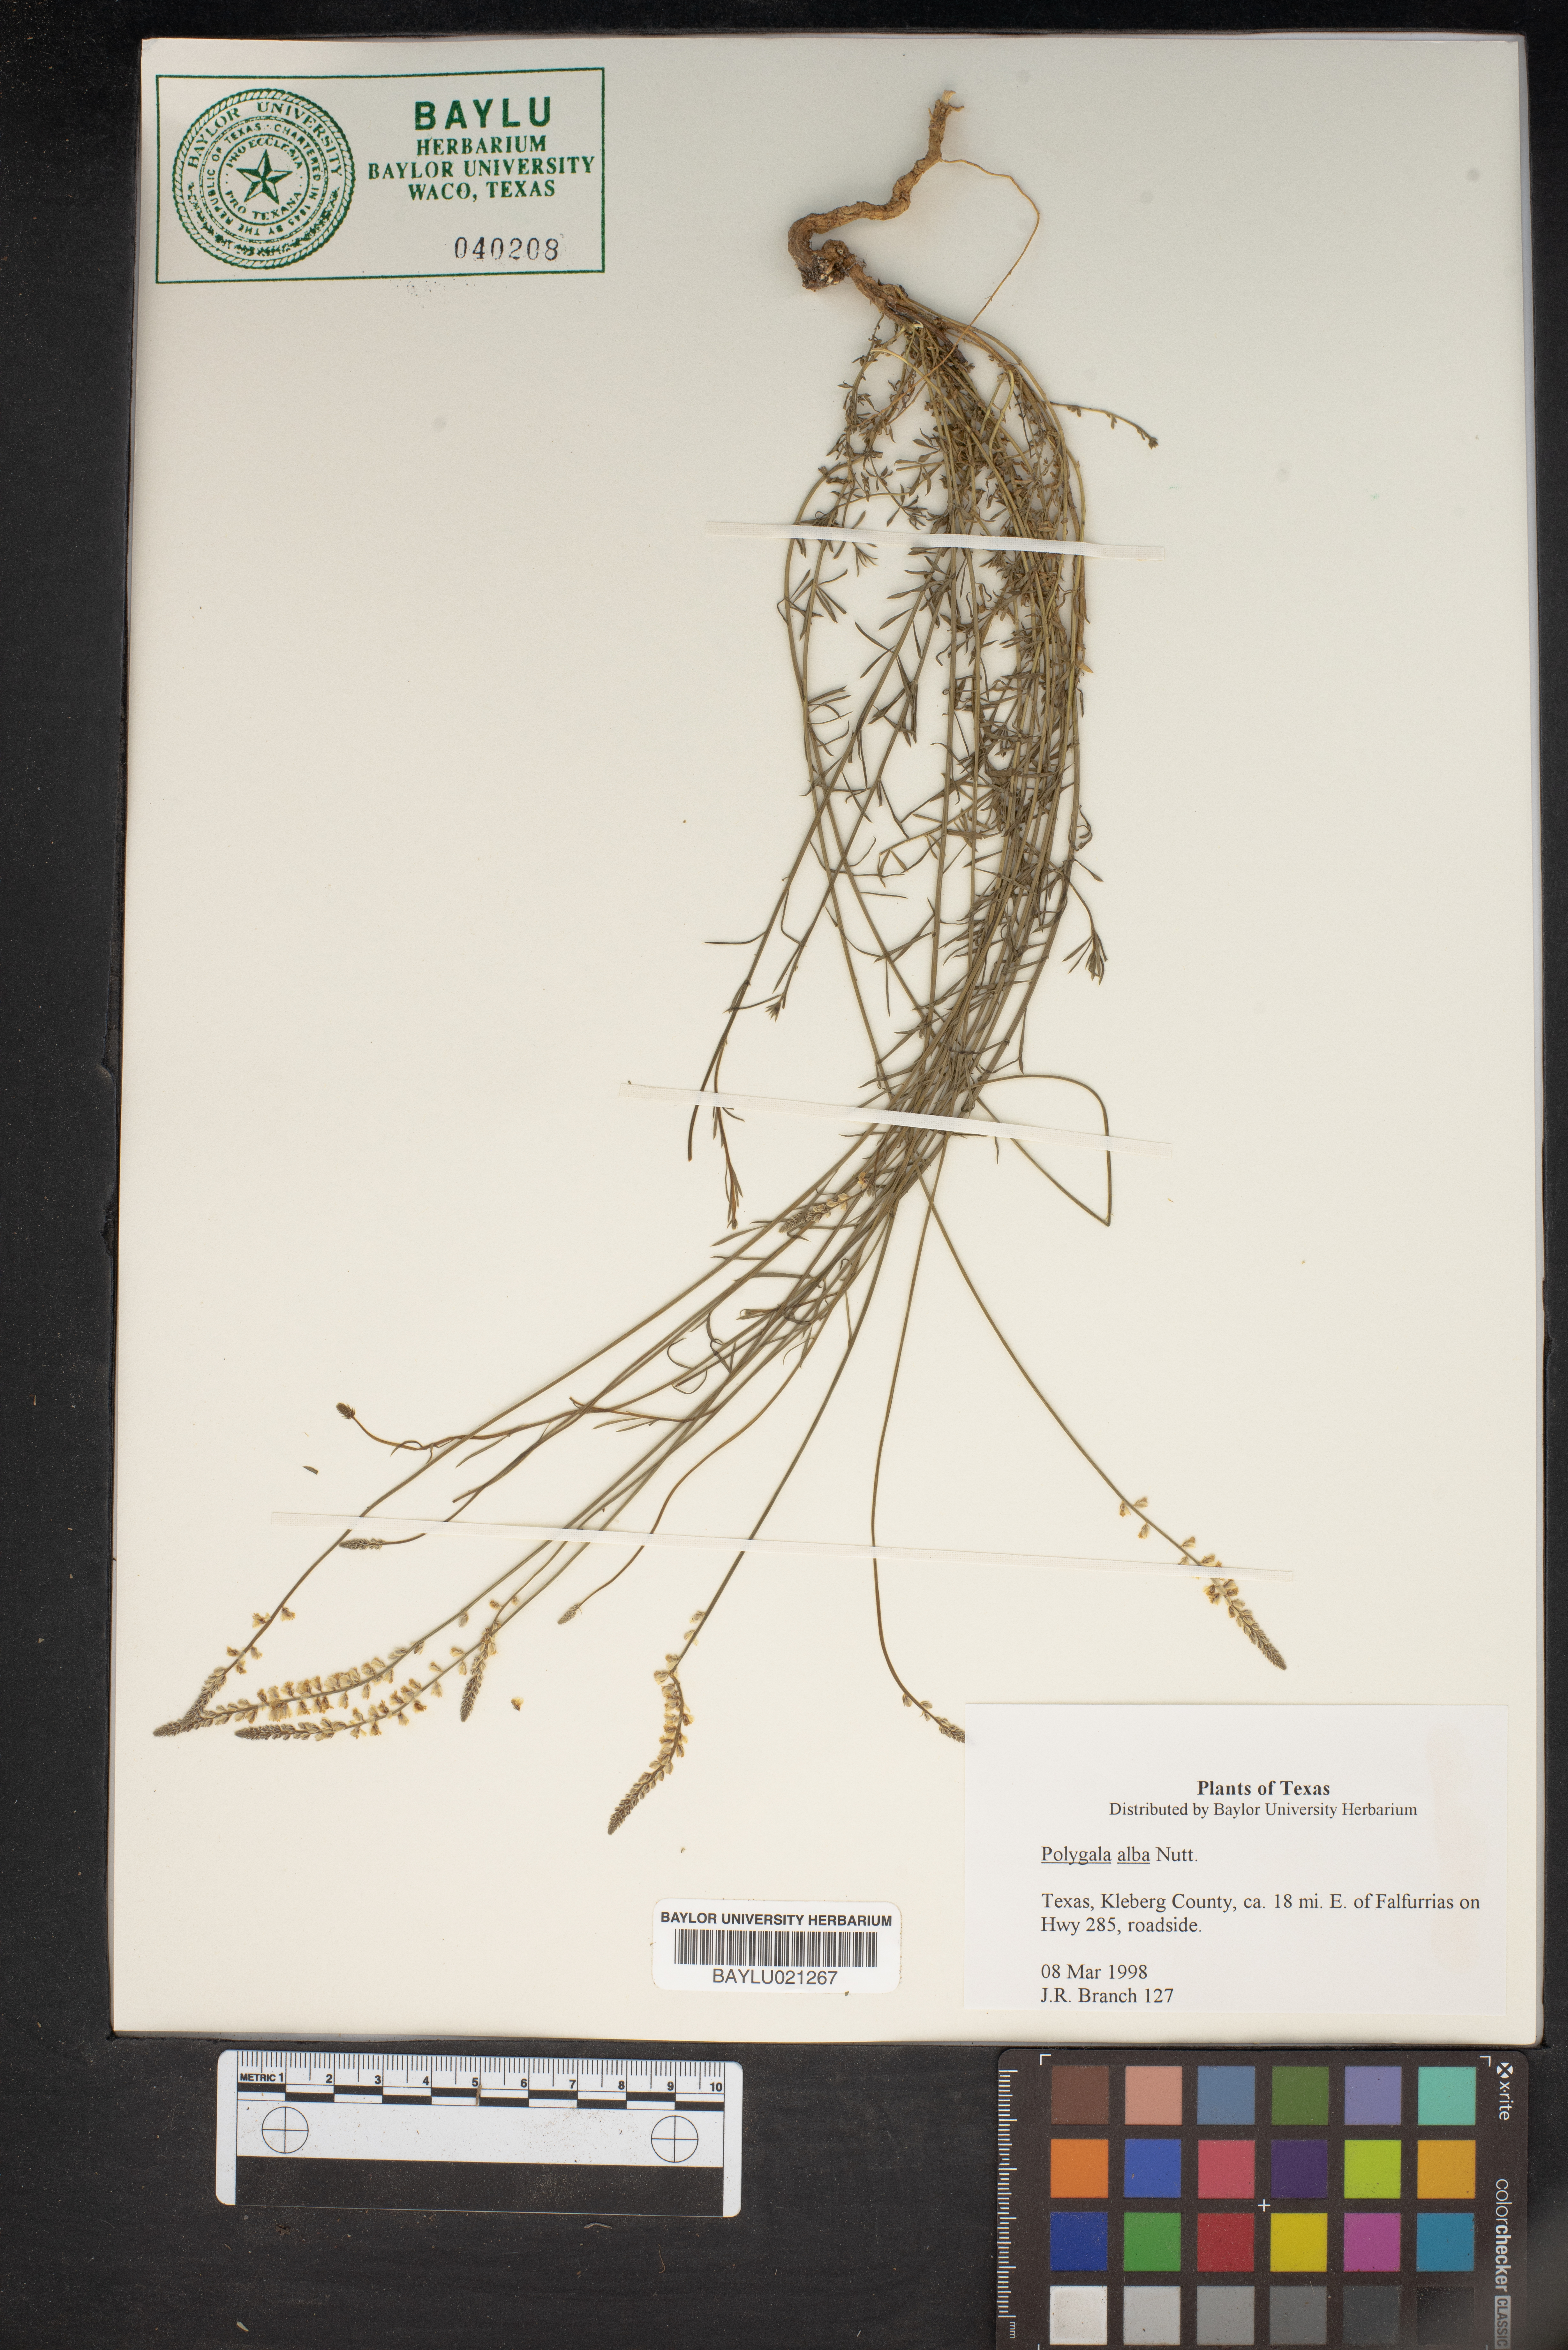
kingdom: Plantae
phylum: Tracheophyta
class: Magnoliopsida
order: Fabales
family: Polygalaceae
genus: Polygala
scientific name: Polygala alba
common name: White milkwort
